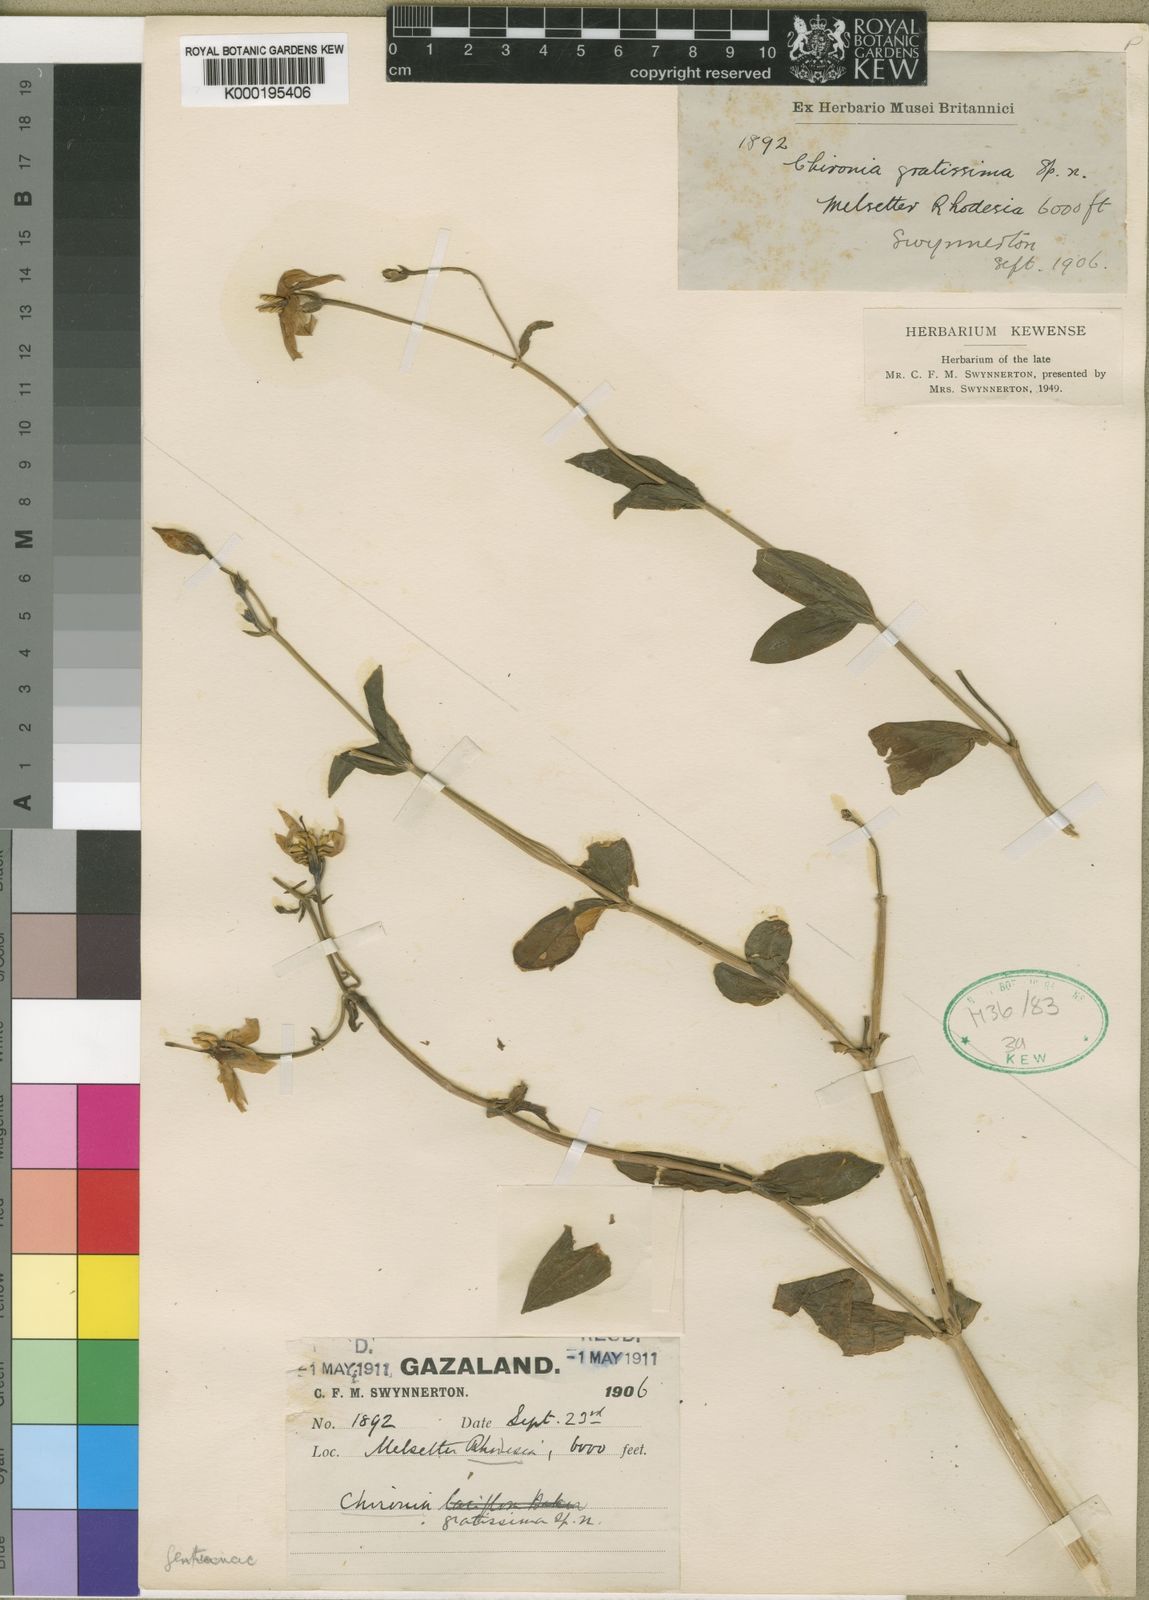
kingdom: Plantae
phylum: Tracheophyta
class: Magnoliopsida
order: Gentianales
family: Gentianaceae
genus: Chironia
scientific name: Chironia gratissima
